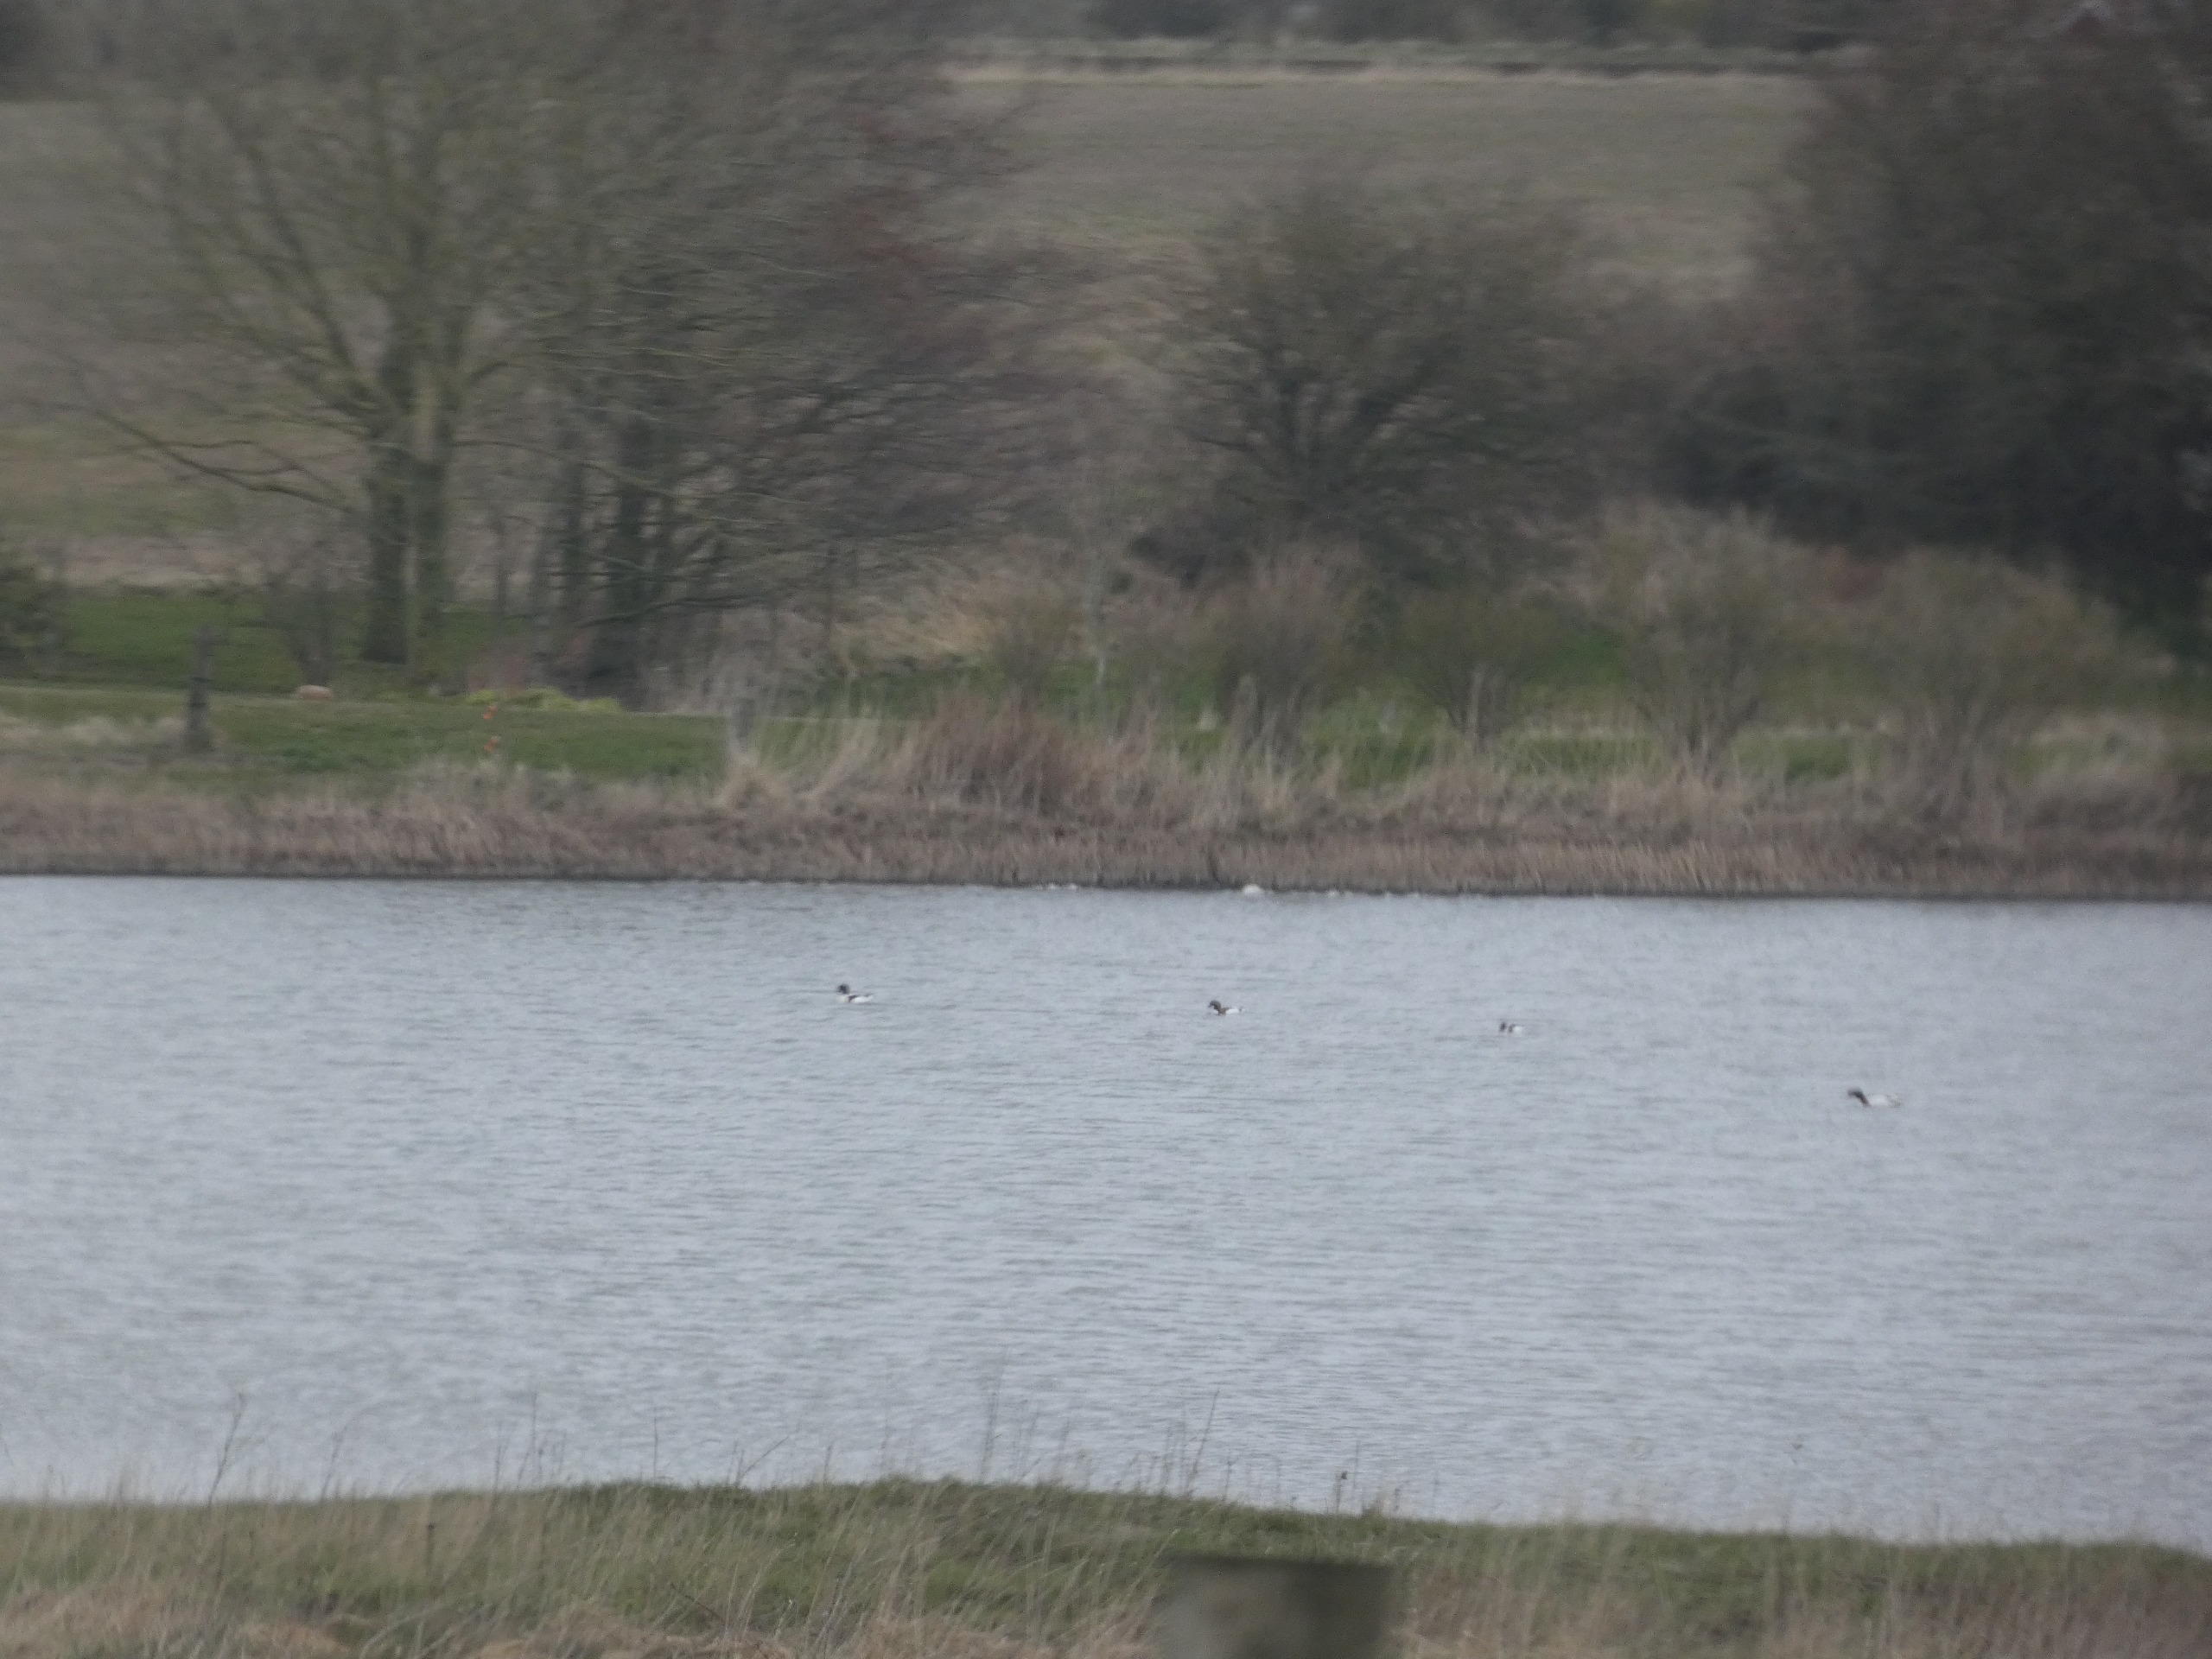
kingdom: Animalia
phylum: Chordata
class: Aves
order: Anseriformes
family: Anatidae
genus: Tadorna
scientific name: Tadorna tadorna
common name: Gravand
